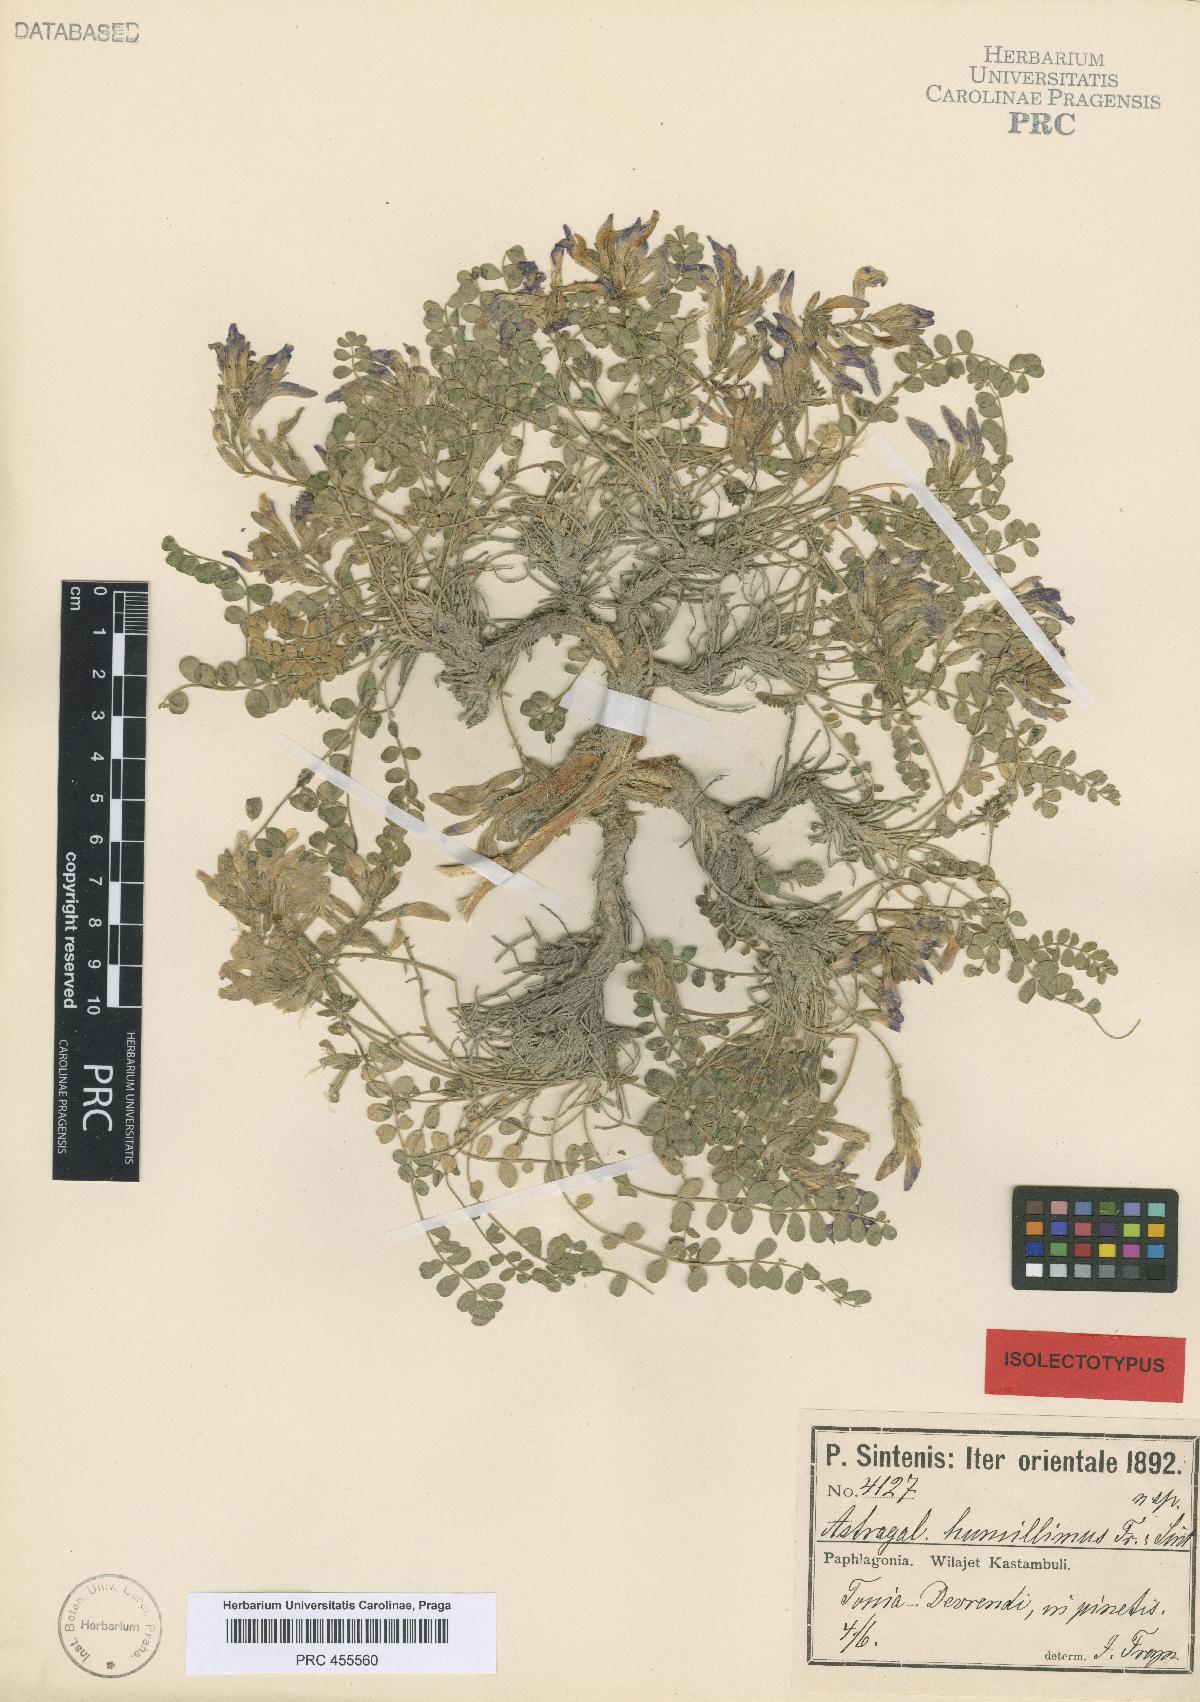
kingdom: Plantae
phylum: Tracheophyta
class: Magnoliopsida
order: Fabales
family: Fabaceae
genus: Astragalus
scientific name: Astragalus prosgaeus
